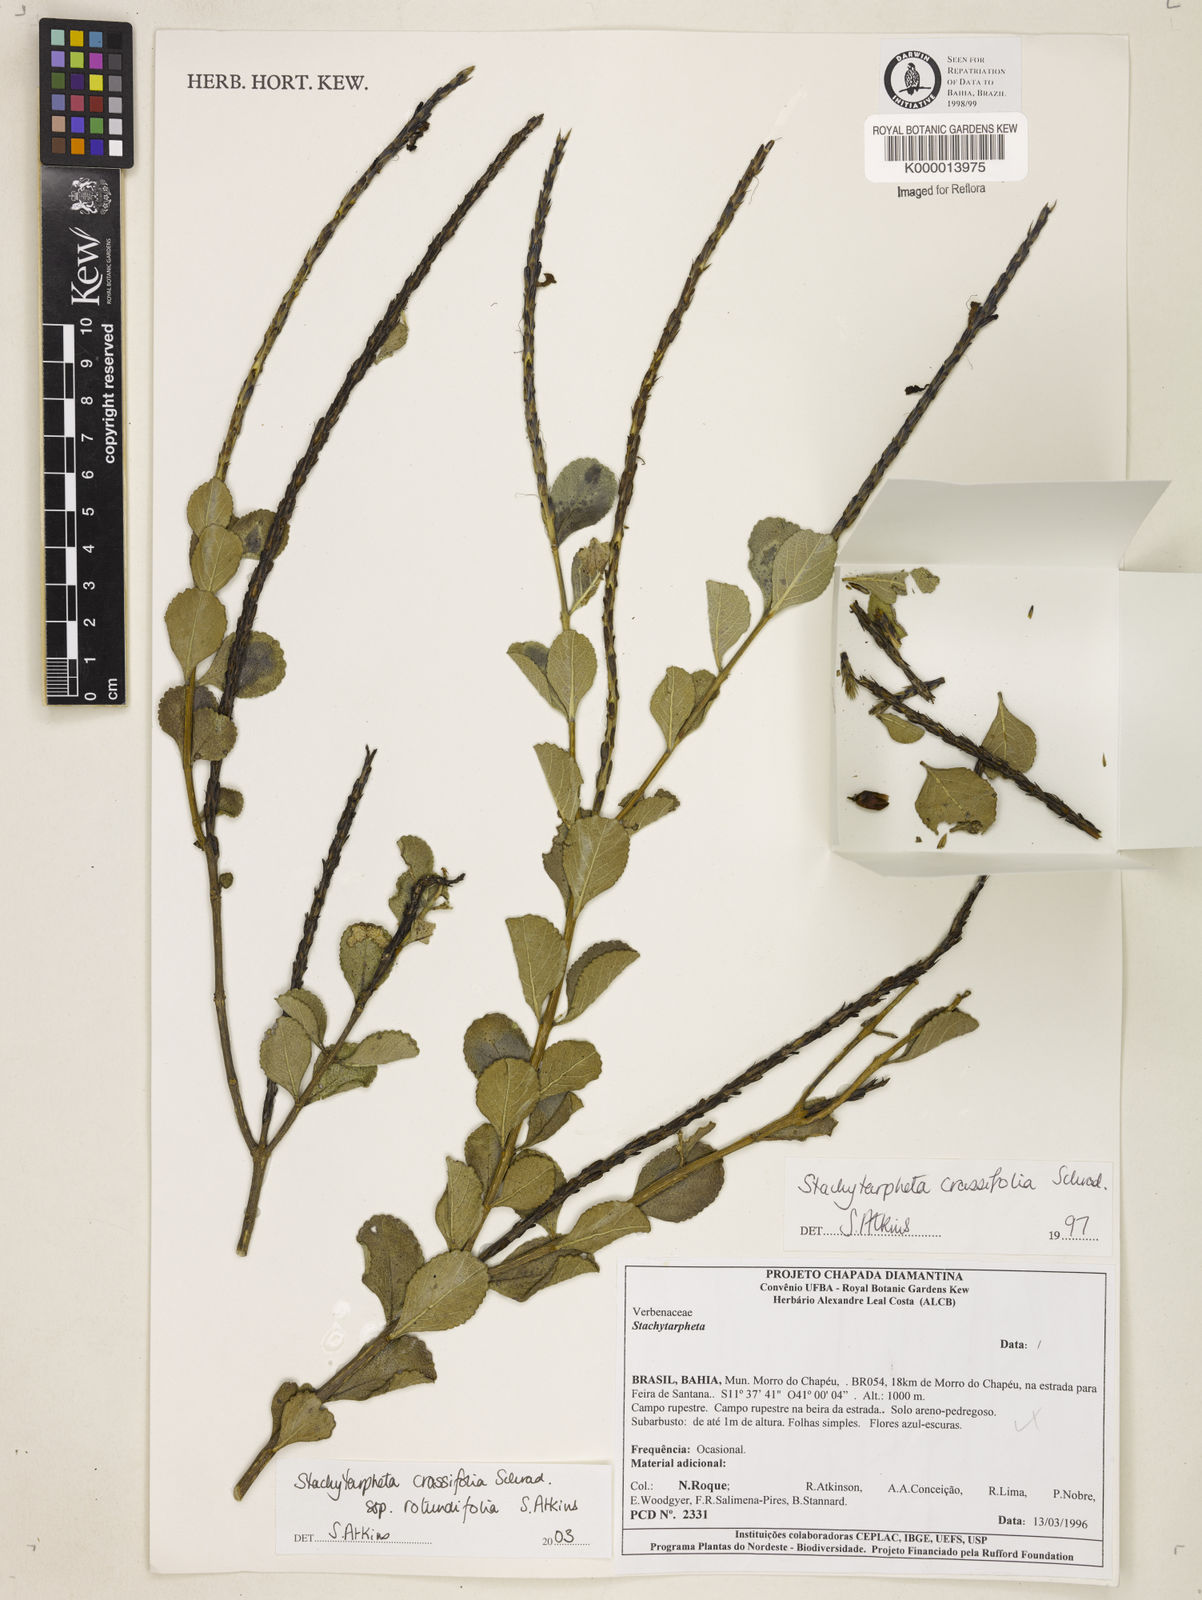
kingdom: Plantae
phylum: Tracheophyta
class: Magnoliopsida
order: Lamiales
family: Verbenaceae
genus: Stachytarpheta
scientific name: Stachytarpheta crassifolia
